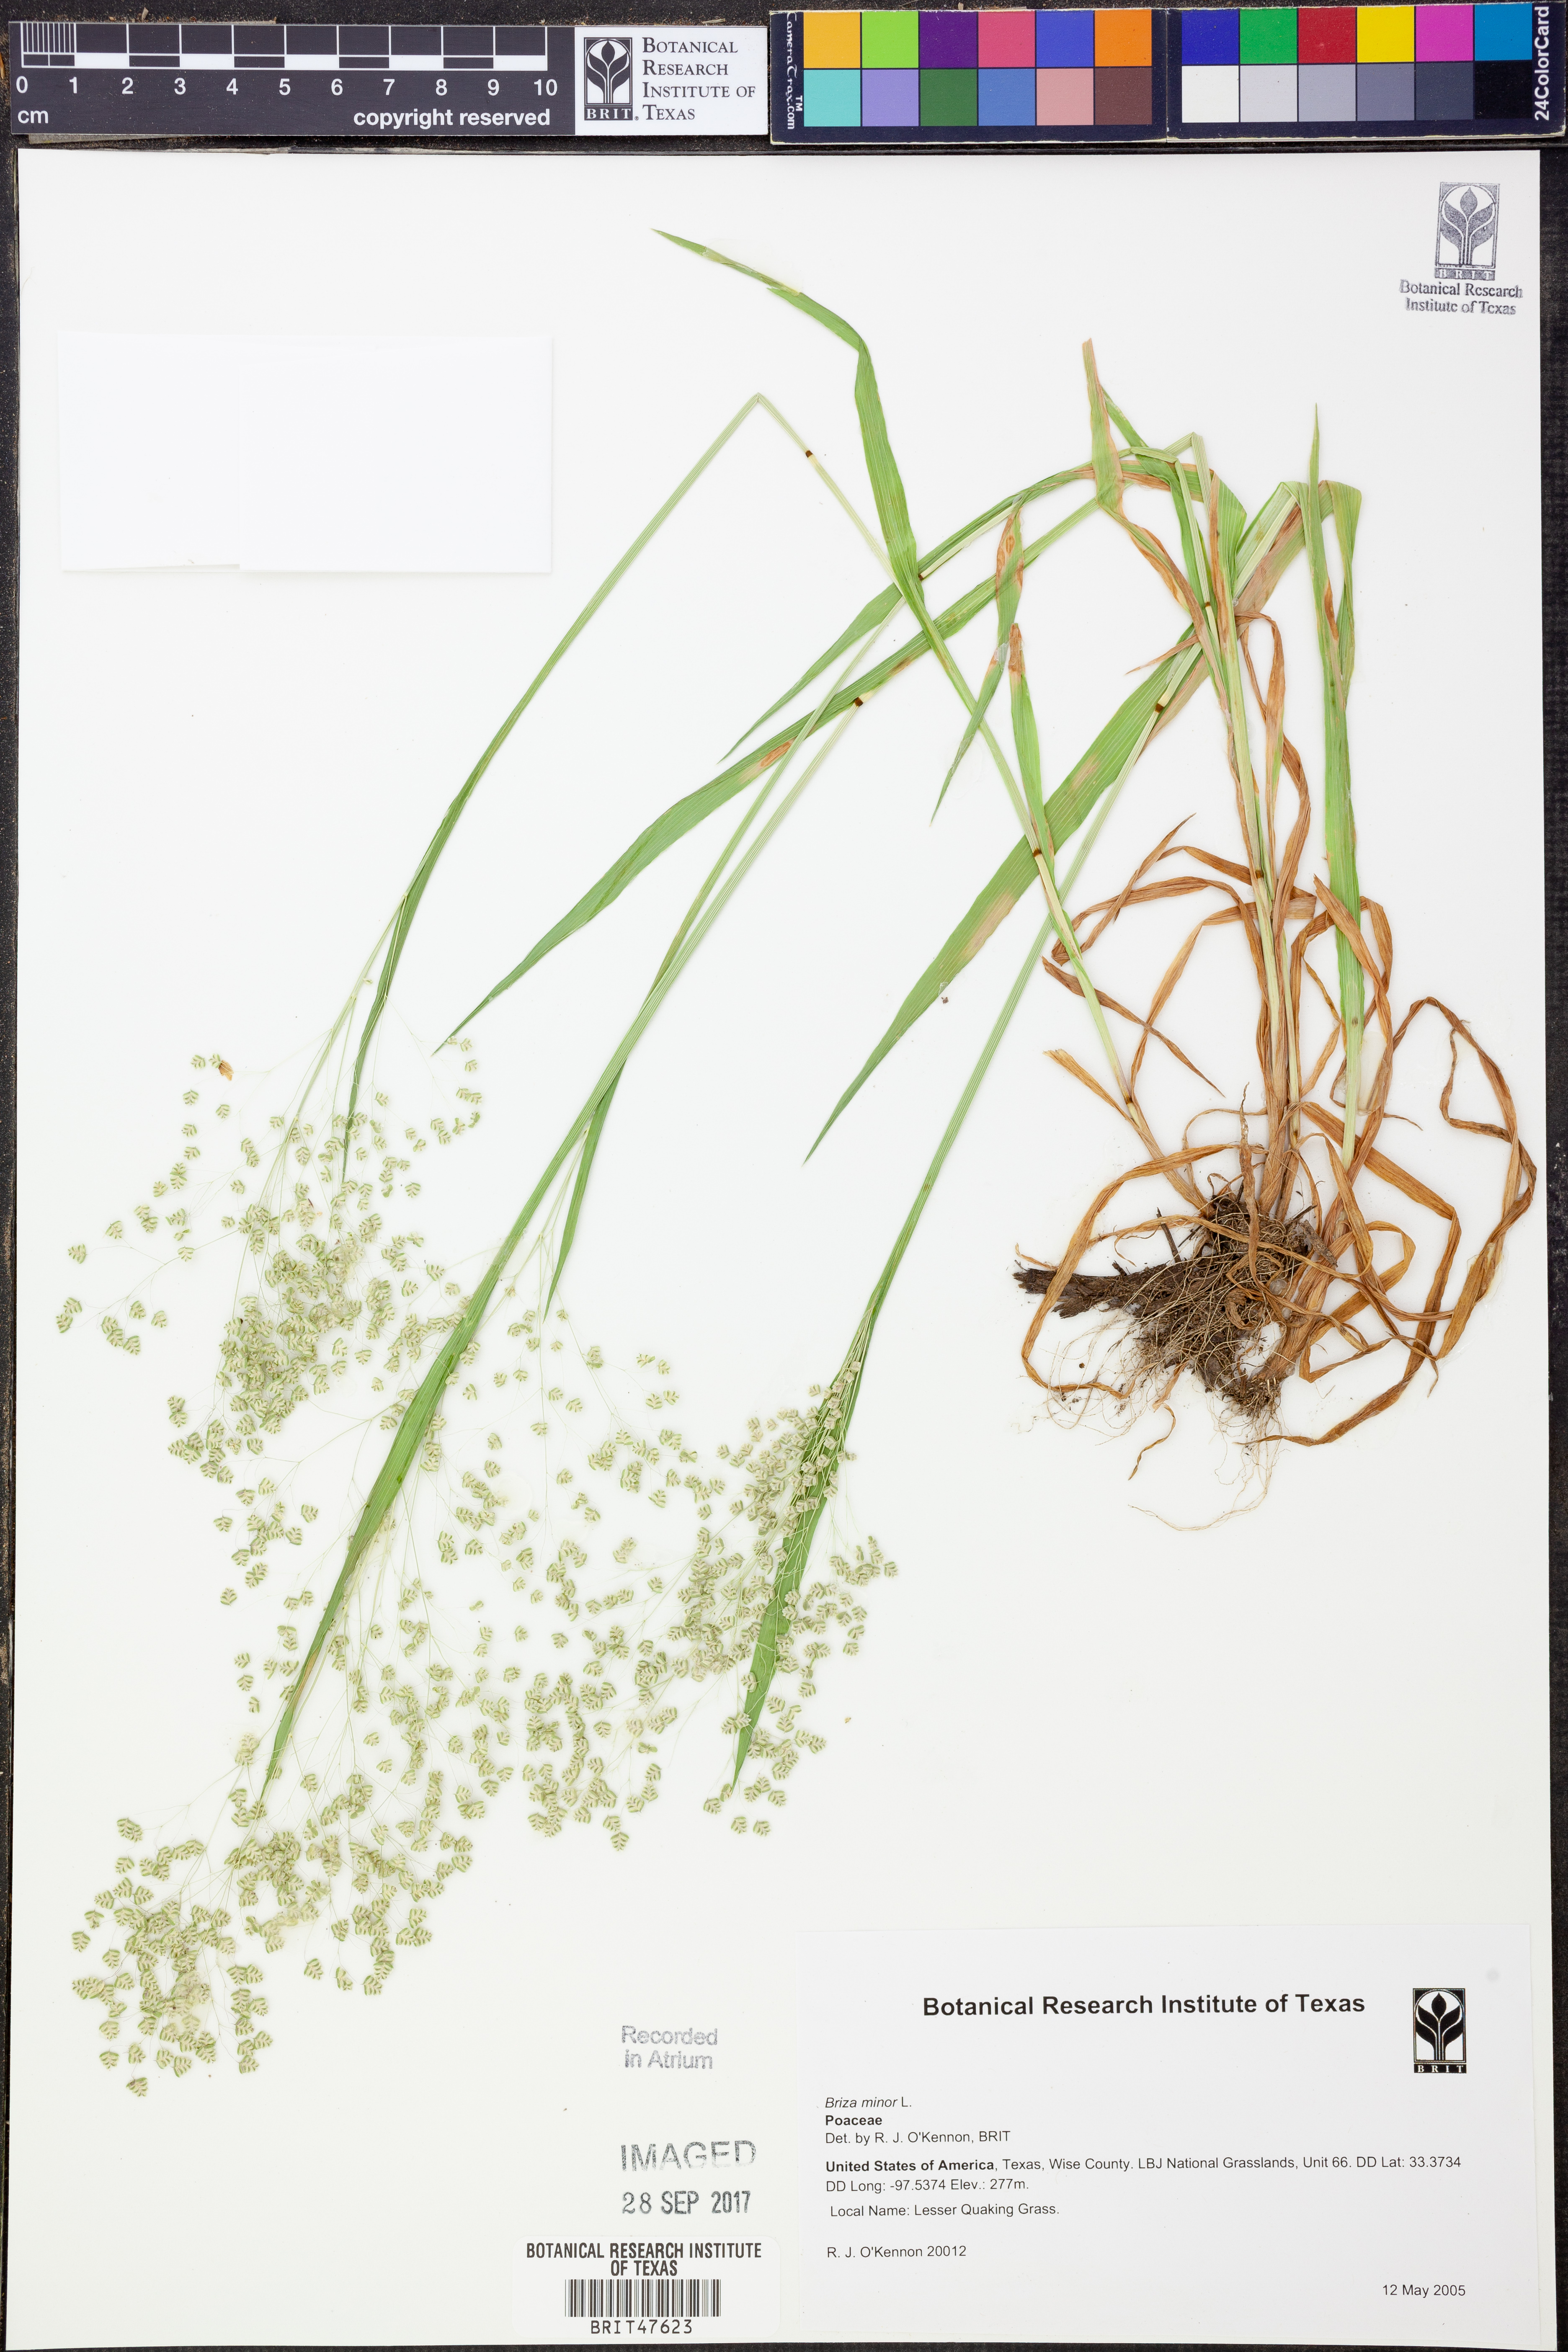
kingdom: Plantae
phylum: Tracheophyta
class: Liliopsida
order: Poales
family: Poaceae
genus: Briza
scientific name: Briza minor
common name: Lesser quaking-grass
